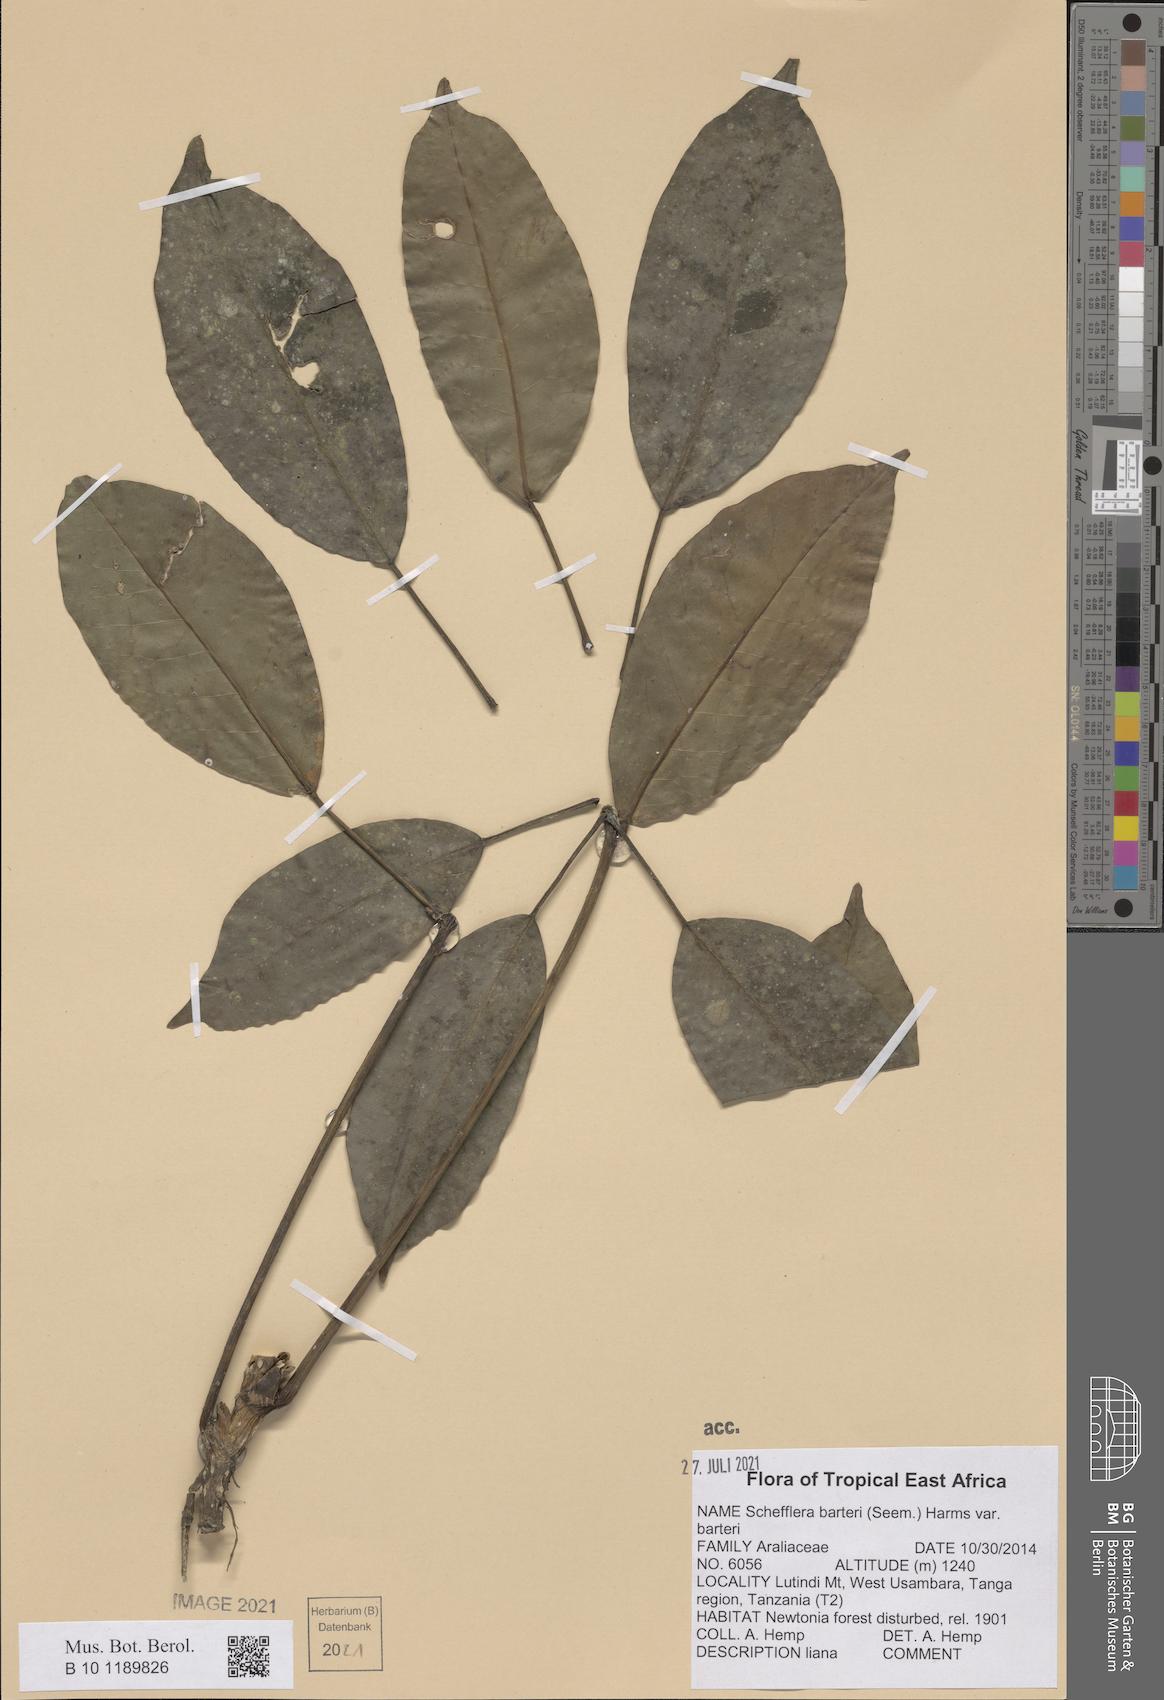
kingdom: Plantae
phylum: Tracheophyta
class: Magnoliopsida
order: Apiales
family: Araliaceae
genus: Schefflera
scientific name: Schefflera barteri
